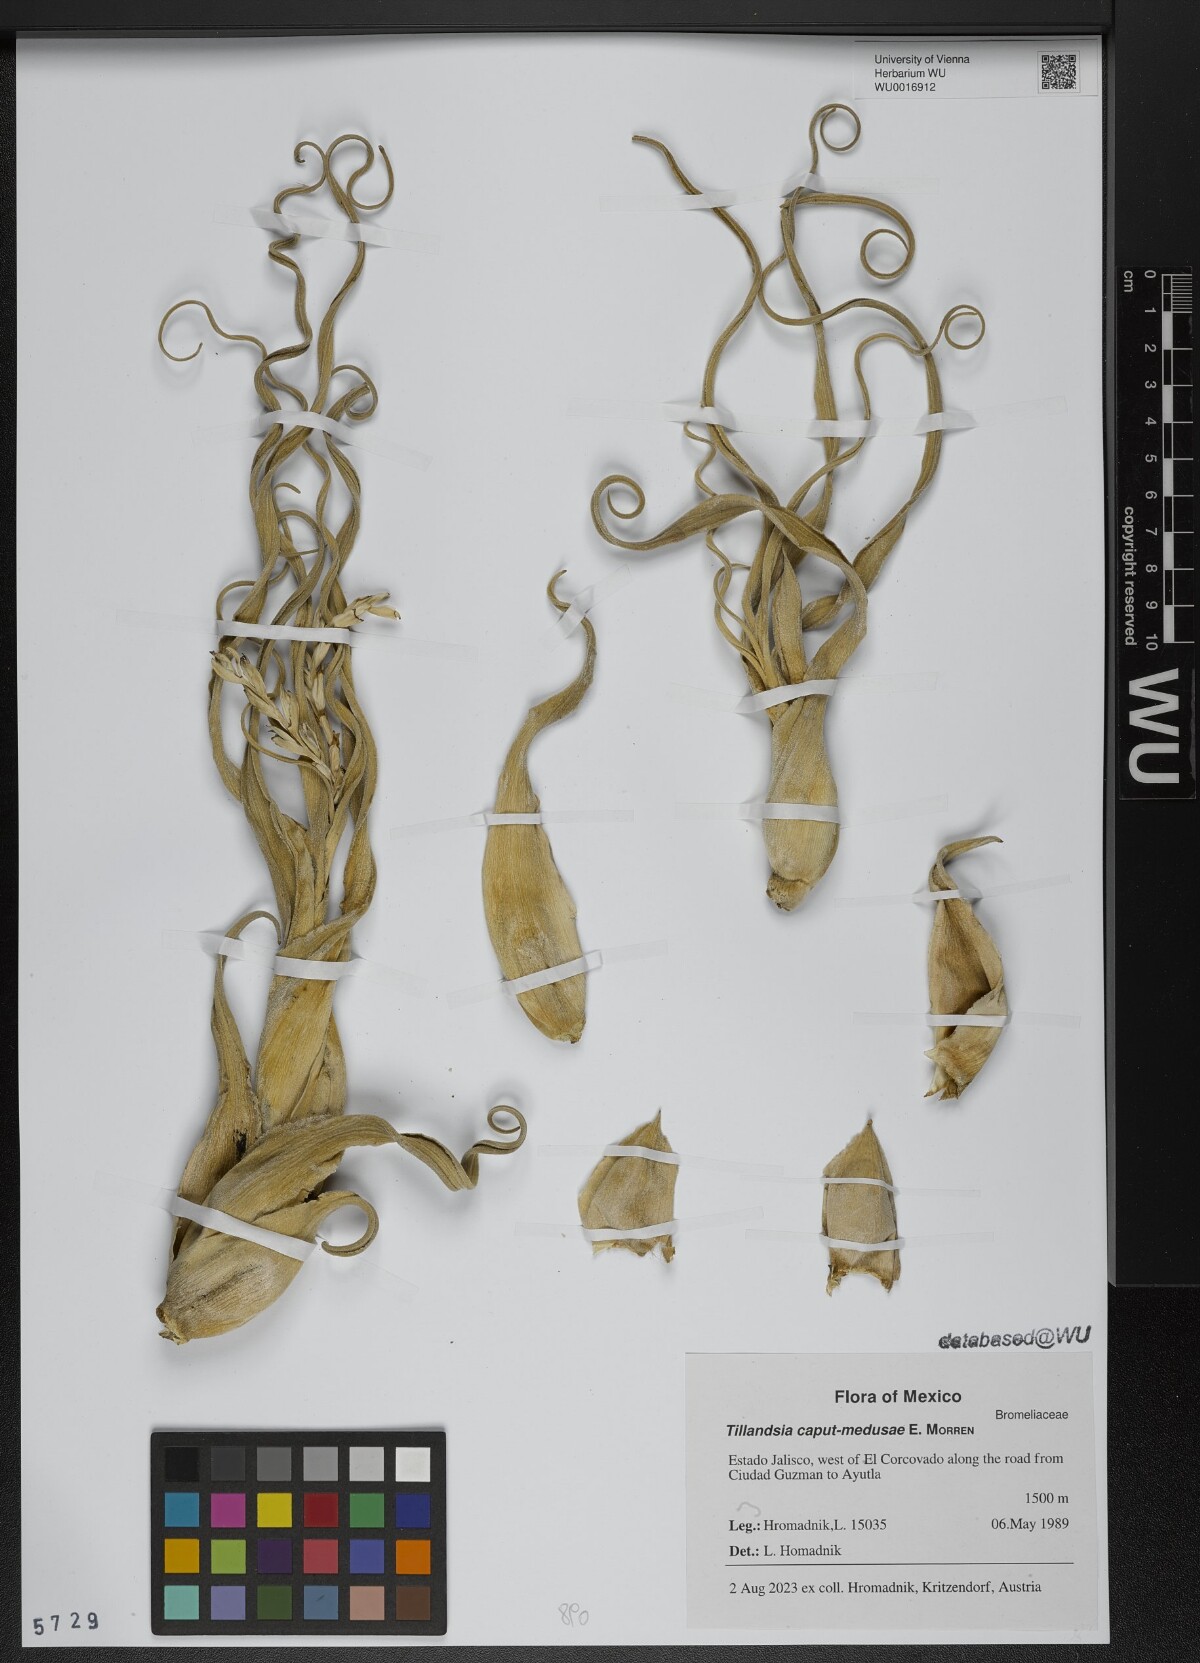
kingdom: Plantae
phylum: Tracheophyta
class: Liliopsida
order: Poales
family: Bromeliaceae
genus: Tillandsia
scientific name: Tillandsia caput-medusae
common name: Octopus plant
